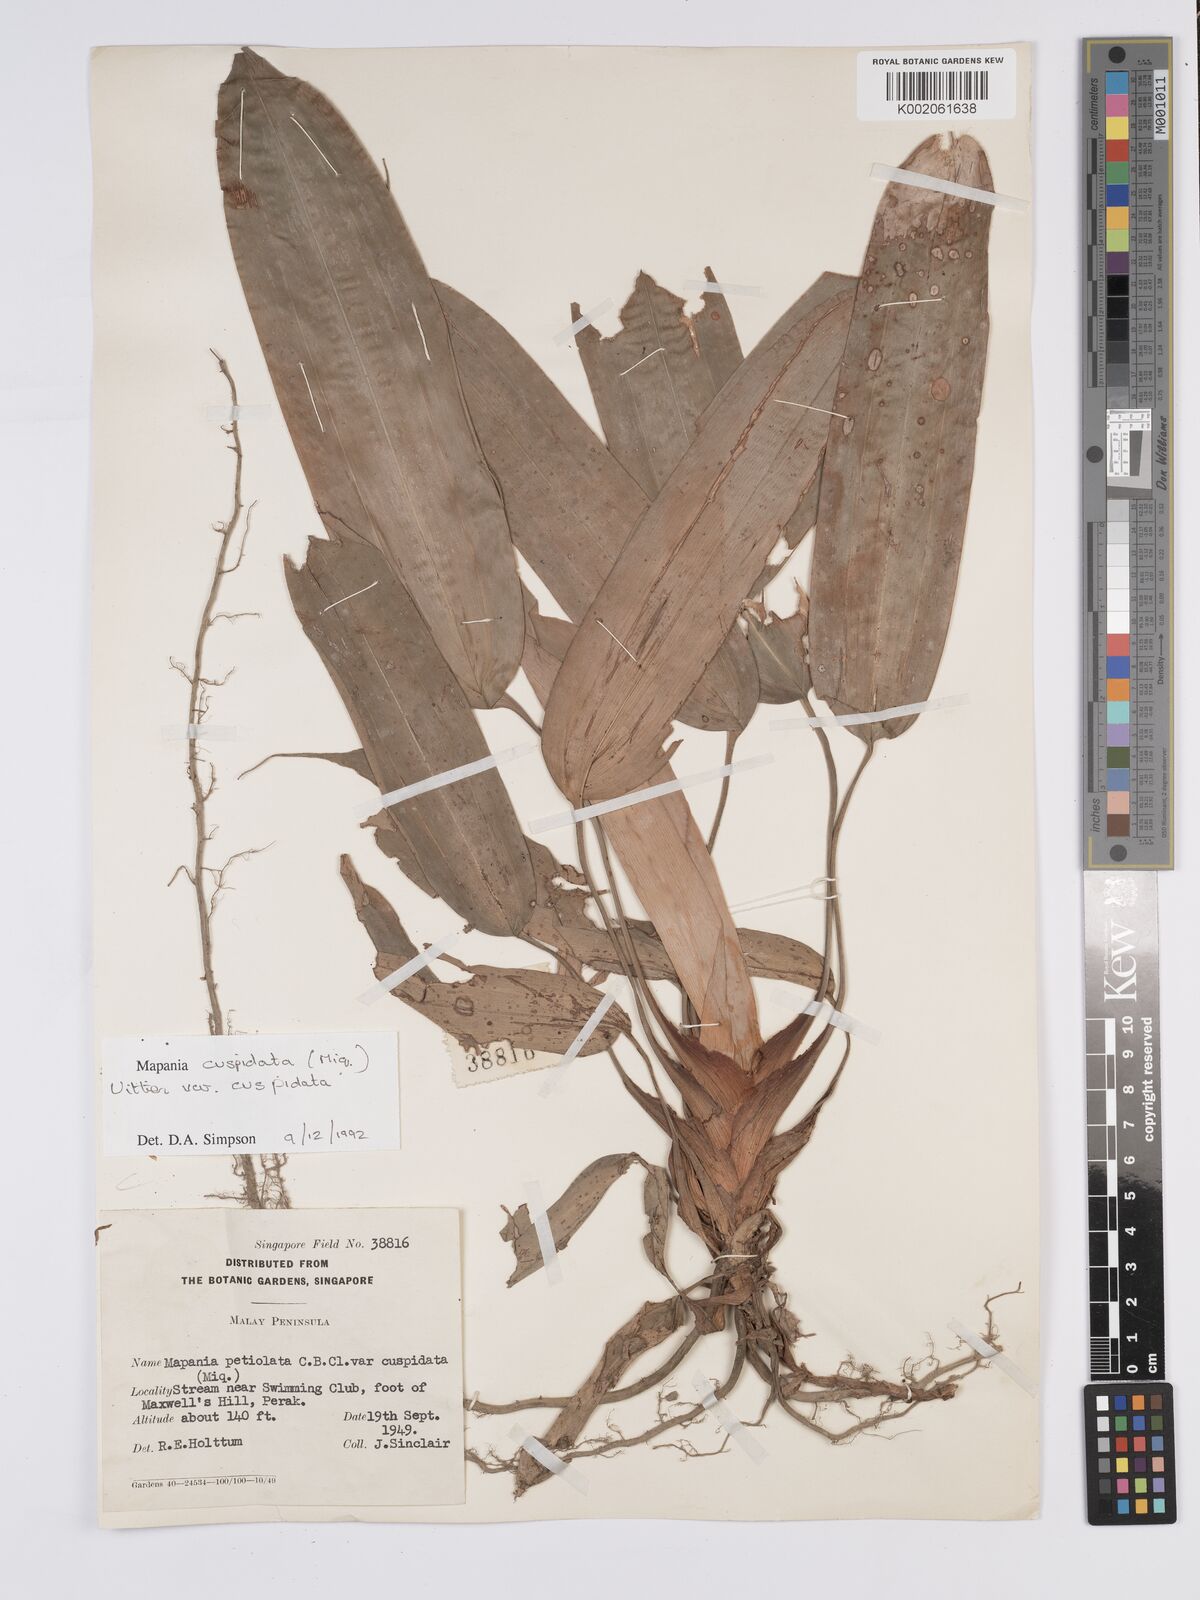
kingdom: Plantae
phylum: Tracheophyta
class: Liliopsida
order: Poales
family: Cyperaceae
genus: Mapania
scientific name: Mapania cuspidata
